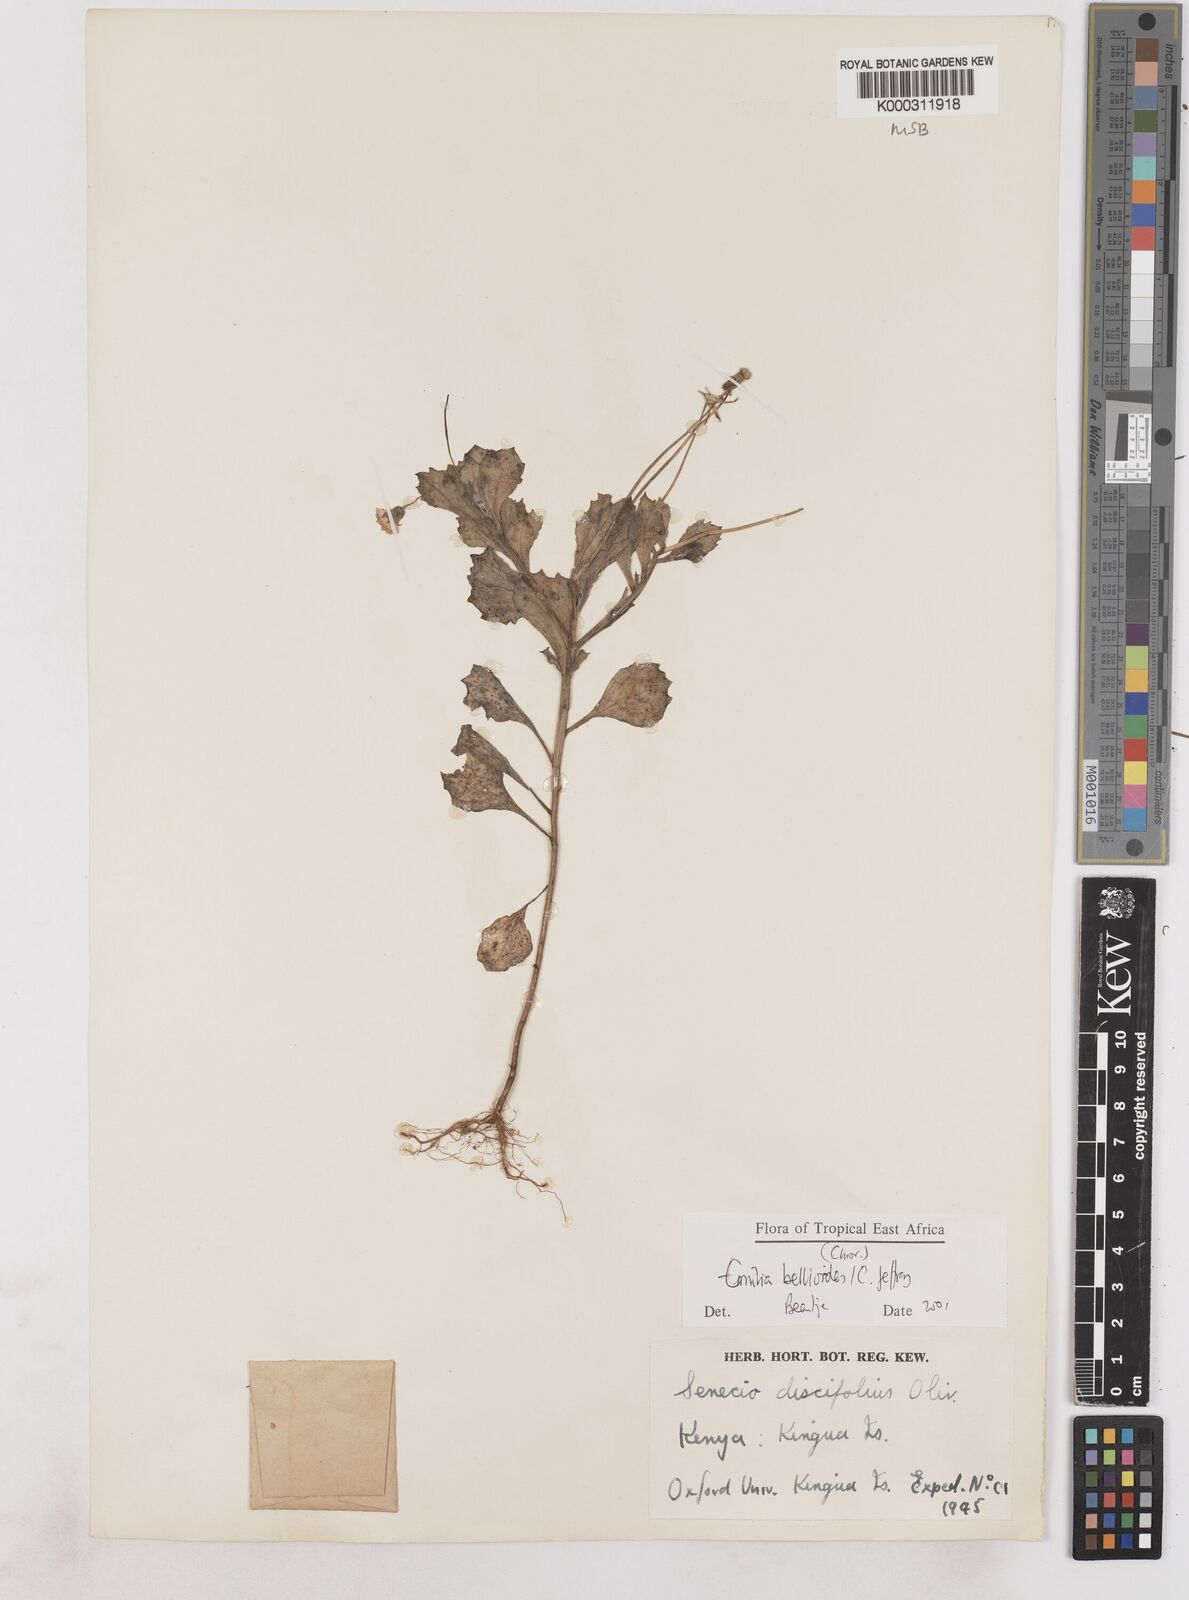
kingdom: Plantae
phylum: Tracheophyta
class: Magnoliopsida
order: Asterales
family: Asteraceae
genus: Emilia
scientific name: Emilia bellioides
